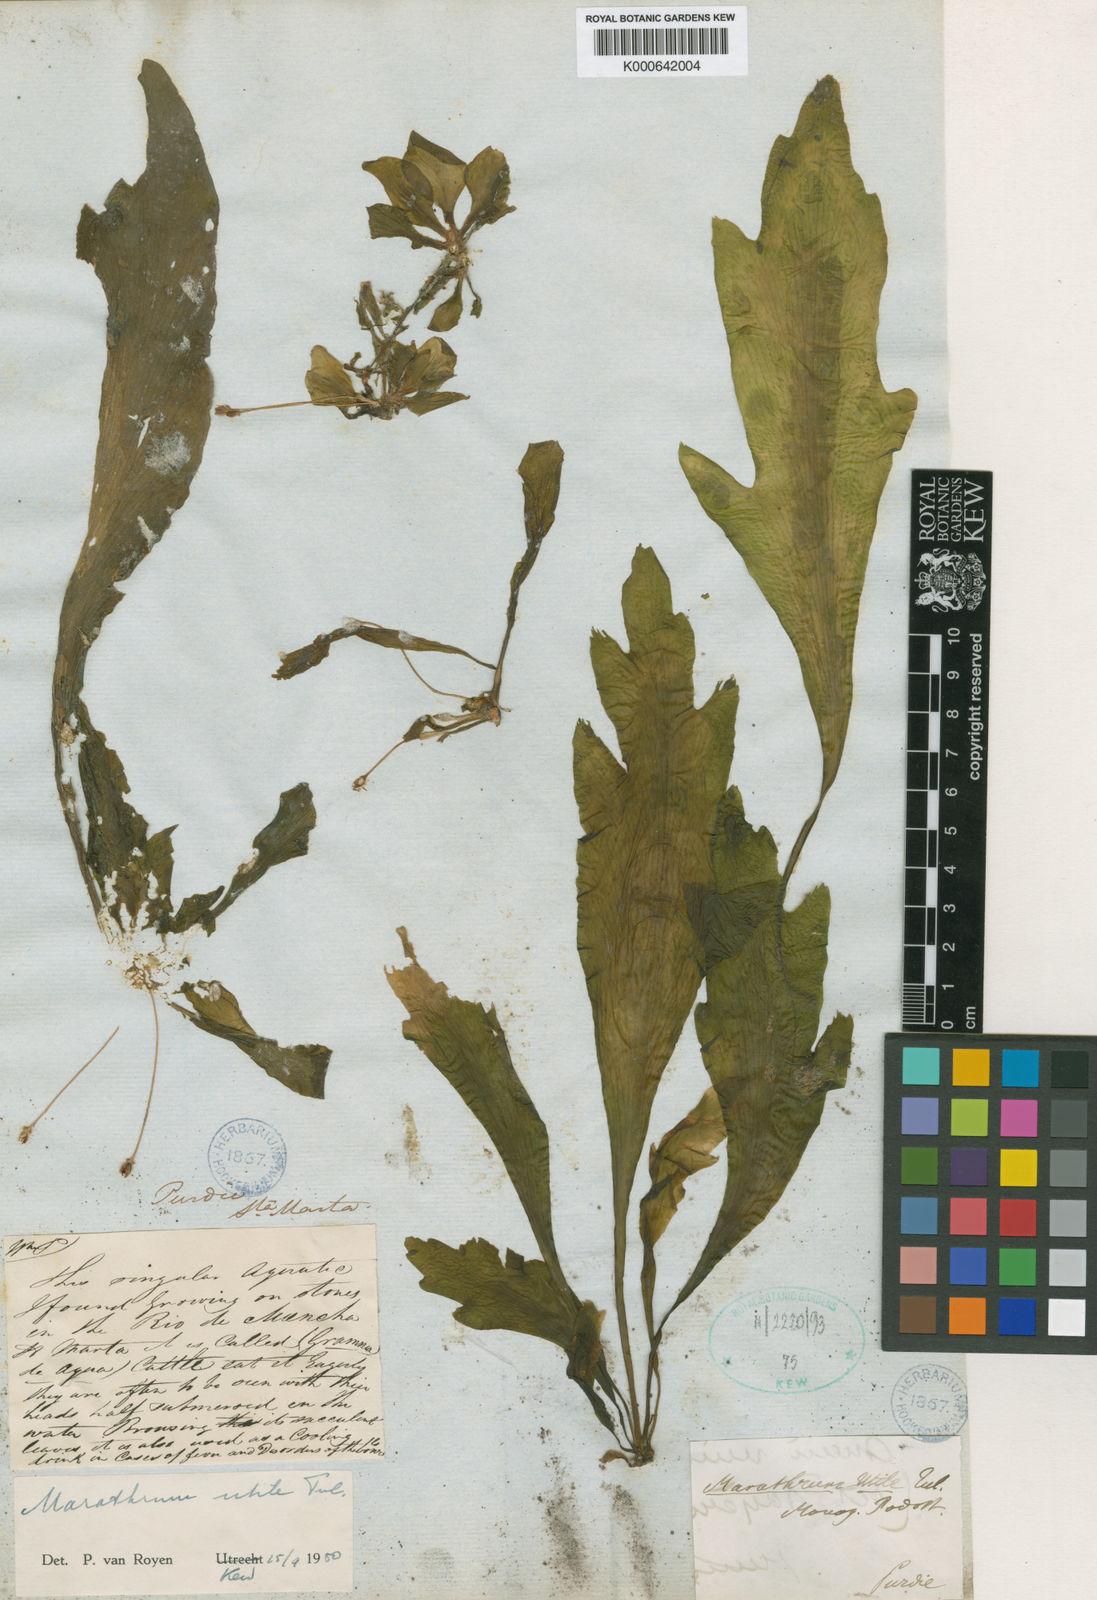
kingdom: Plantae
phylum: Tracheophyta
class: Magnoliopsida
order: Malpighiales
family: Podostemaceae
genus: Marathrum
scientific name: Marathrum utile
